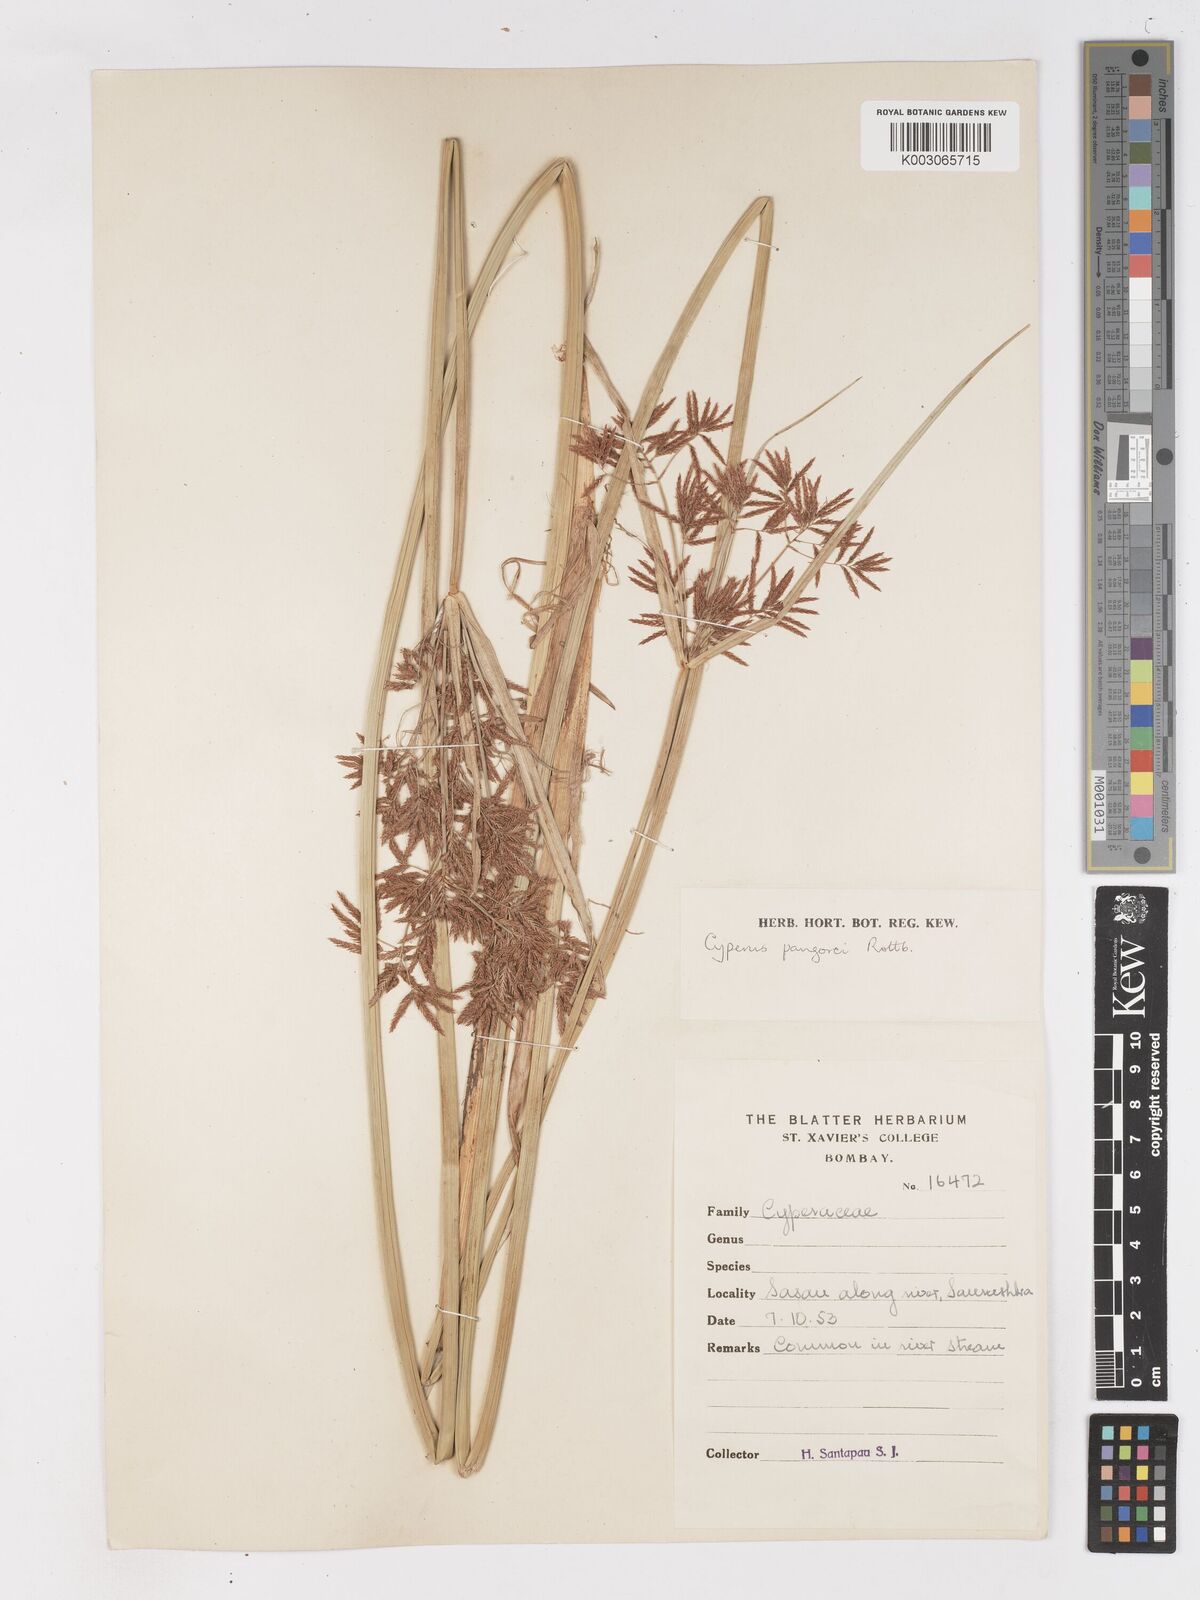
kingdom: Plantae
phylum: Tracheophyta
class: Liliopsida
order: Poales
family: Cyperaceae
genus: Cyperus
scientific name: Cyperus pangorei
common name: Mat sedge
